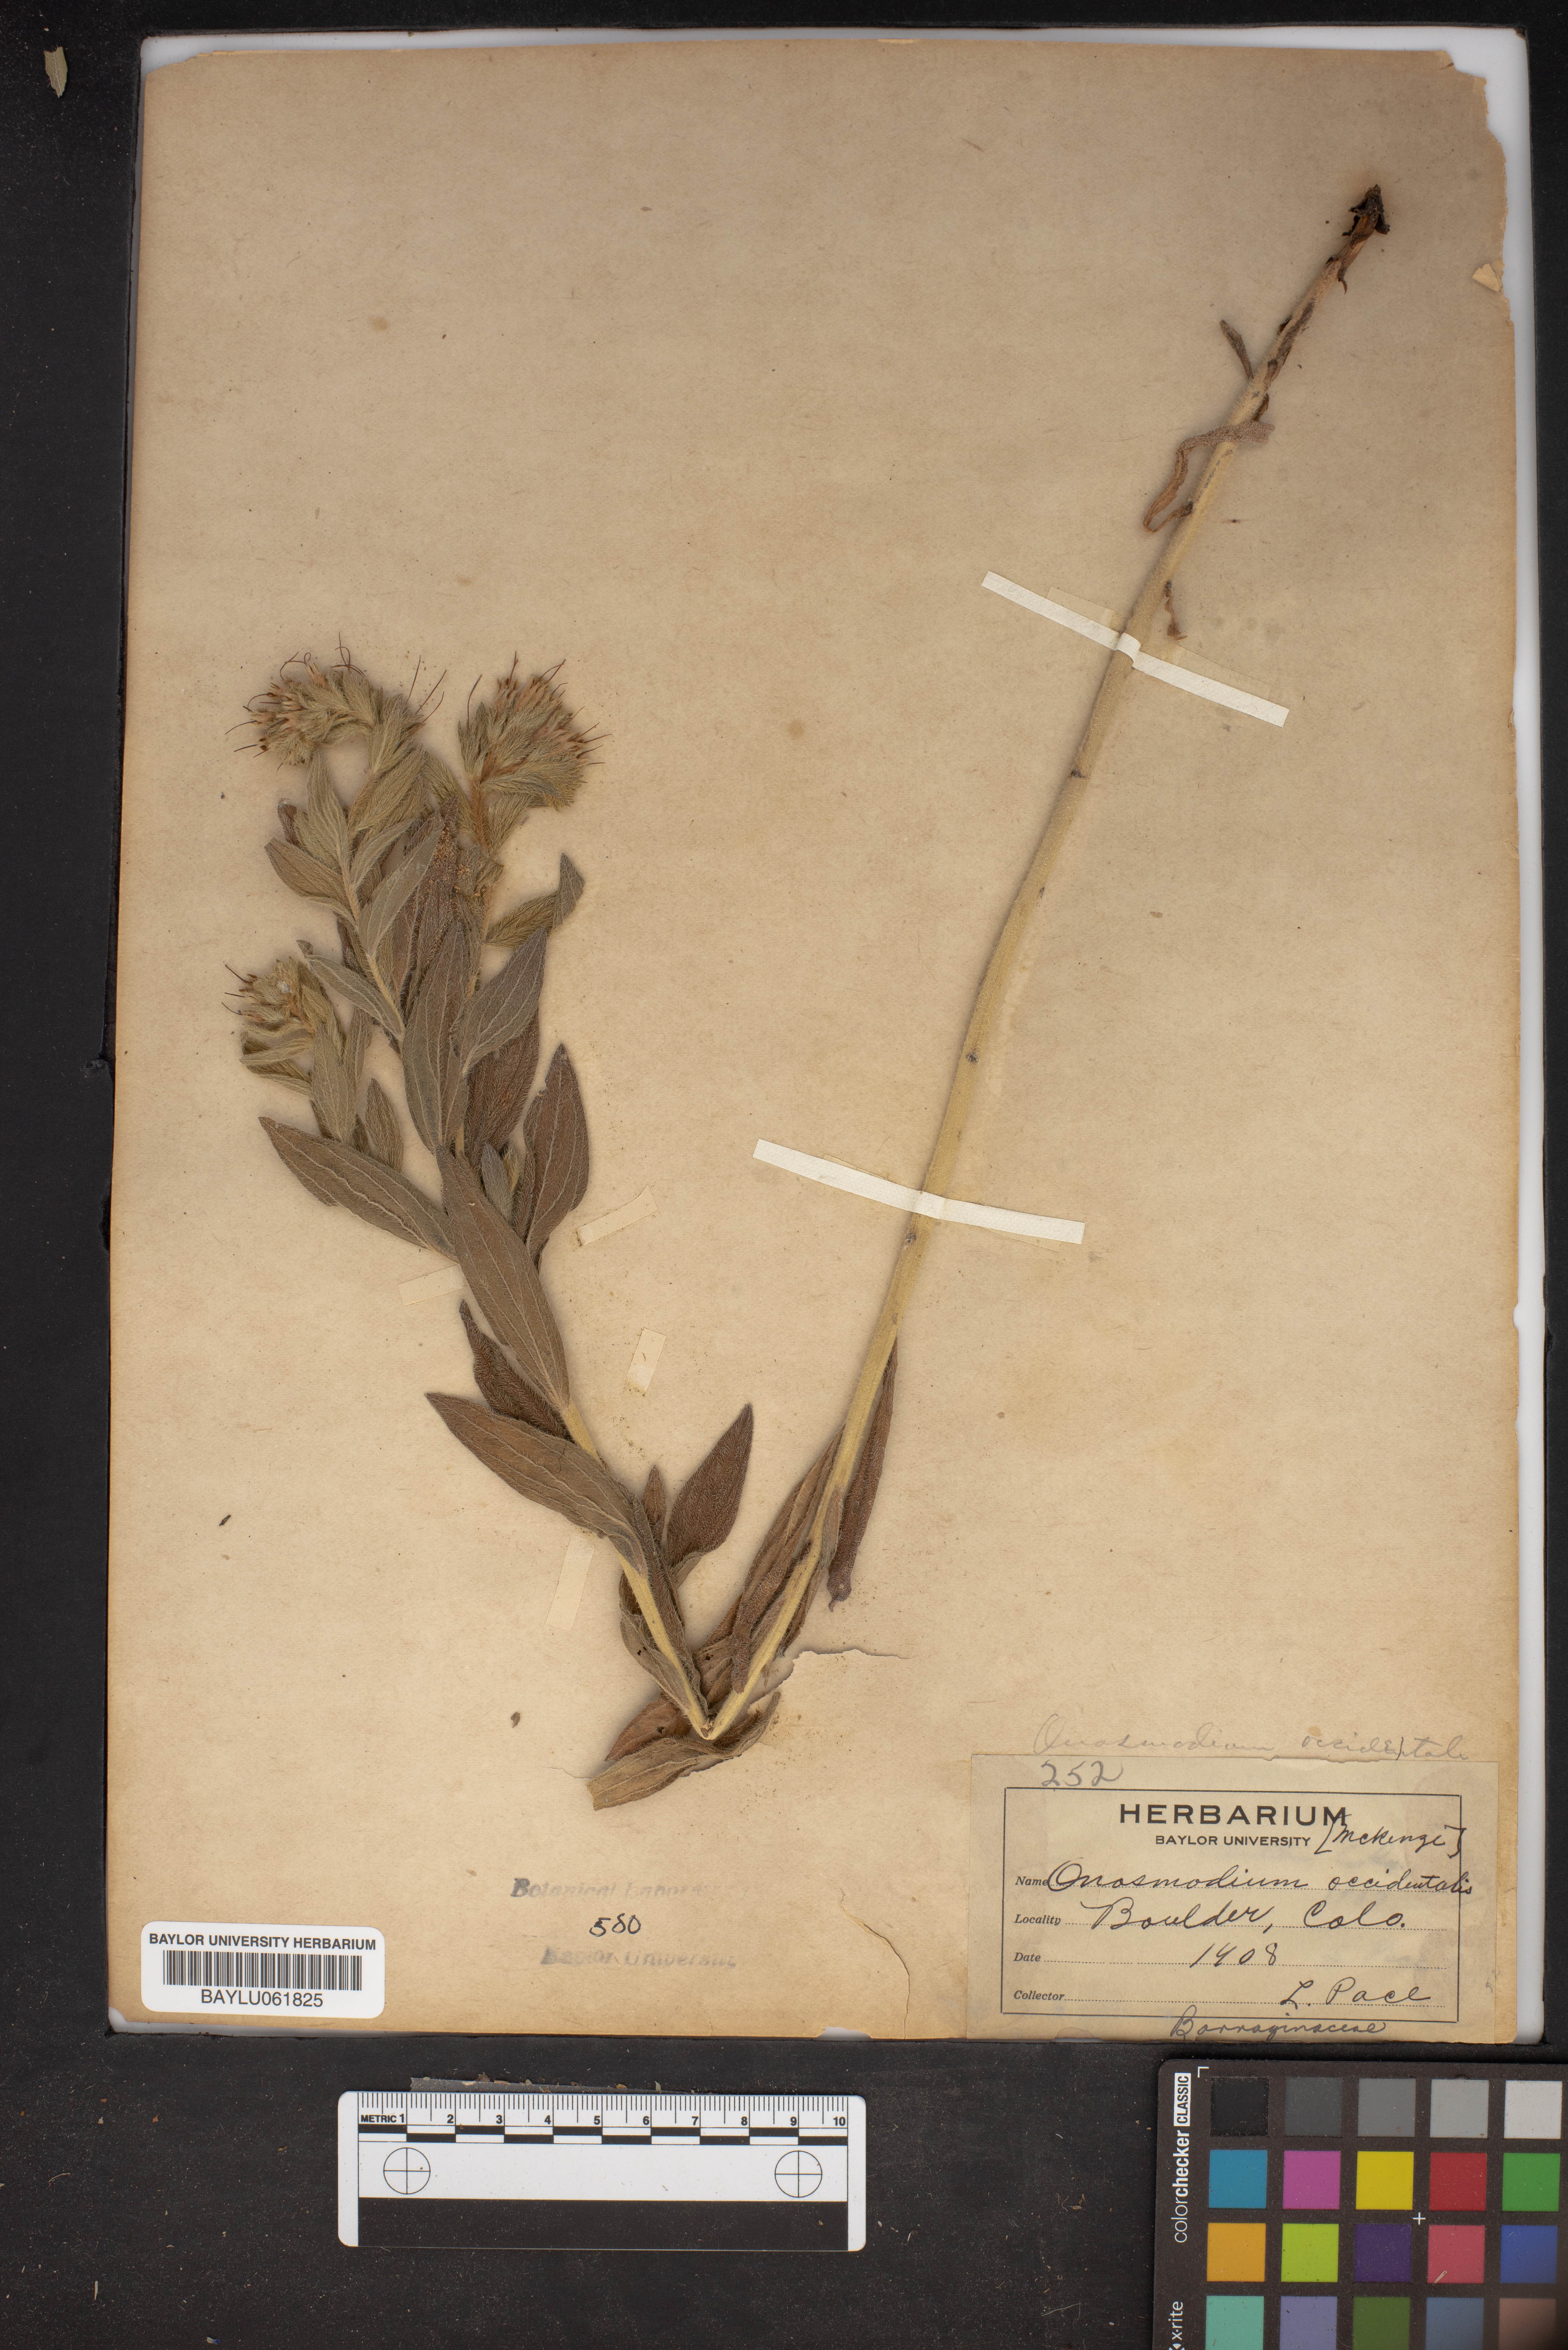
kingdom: Plantae
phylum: Tracheophyta
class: Magnoliopsida
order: Boraginales
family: Boraginaceae
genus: Lithospermum
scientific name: Lithospermum occidentale
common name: Western false gromwell
